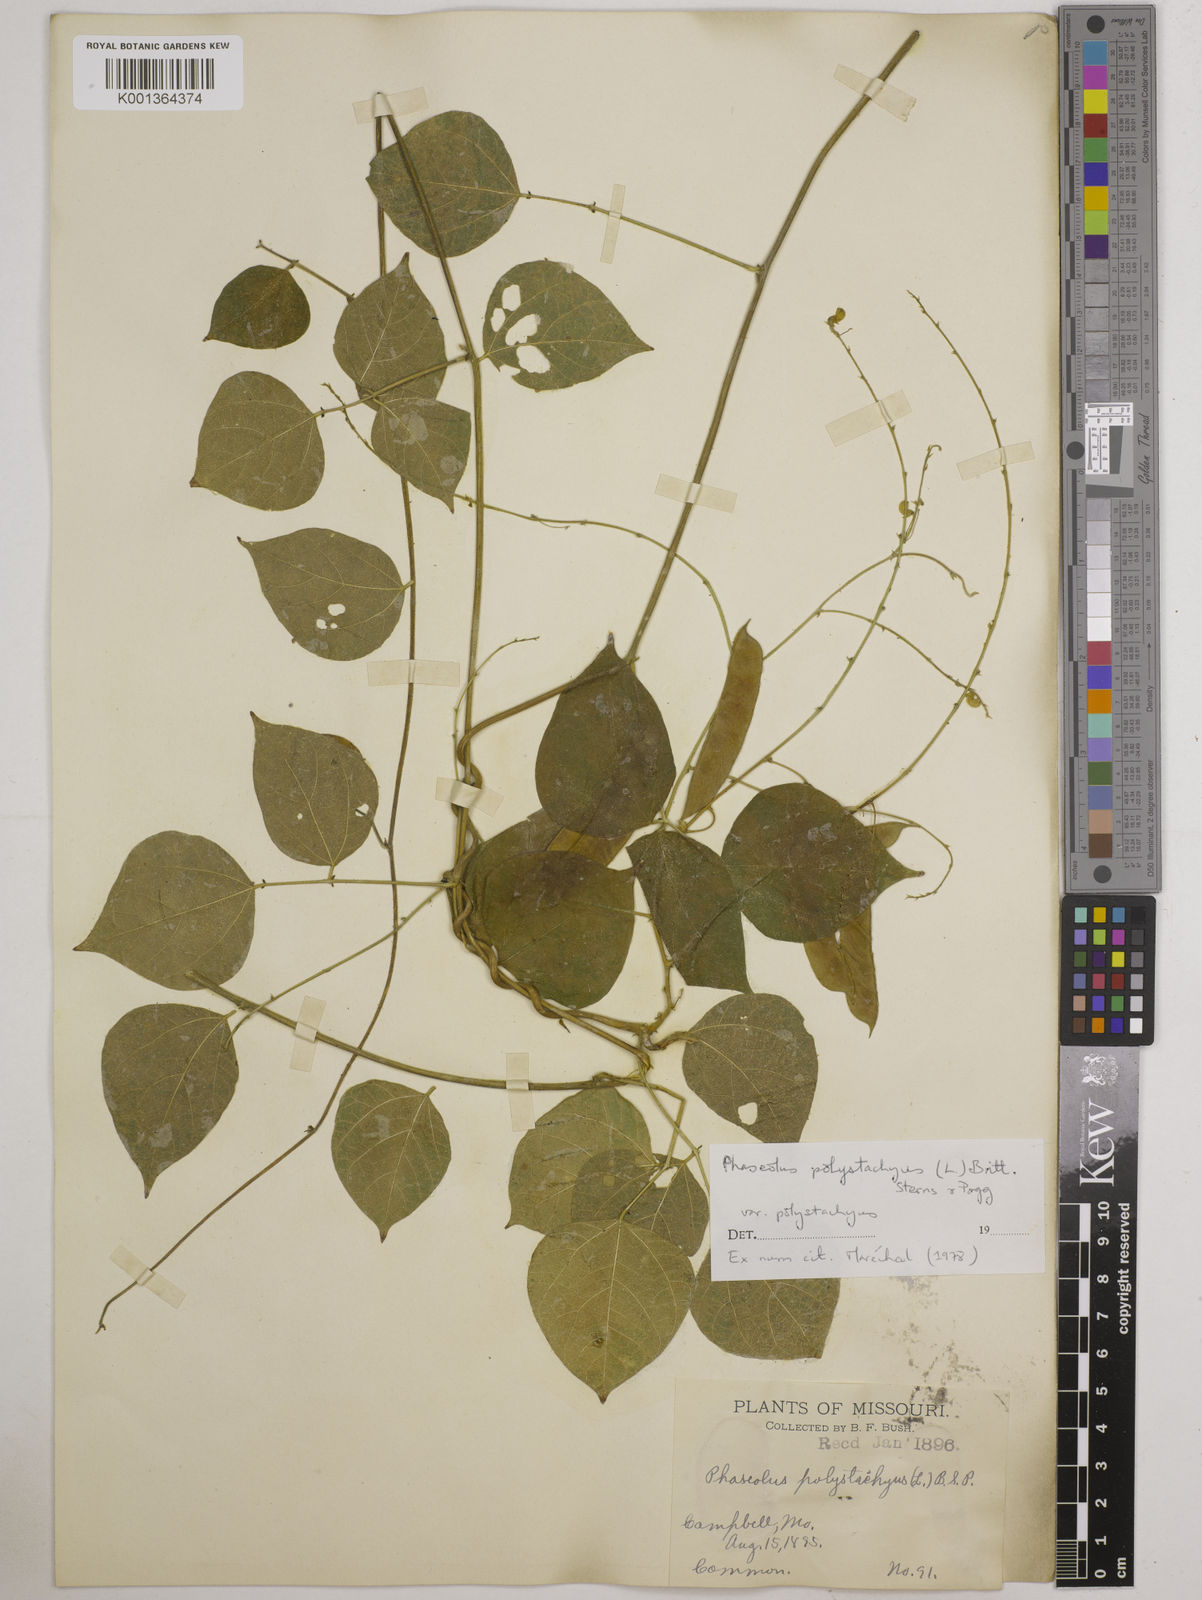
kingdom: Plantae
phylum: Tracheophyta
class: Magnoliopsida
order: Fabales
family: Fabaceae
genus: Phaseolus
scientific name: Phaseolus
